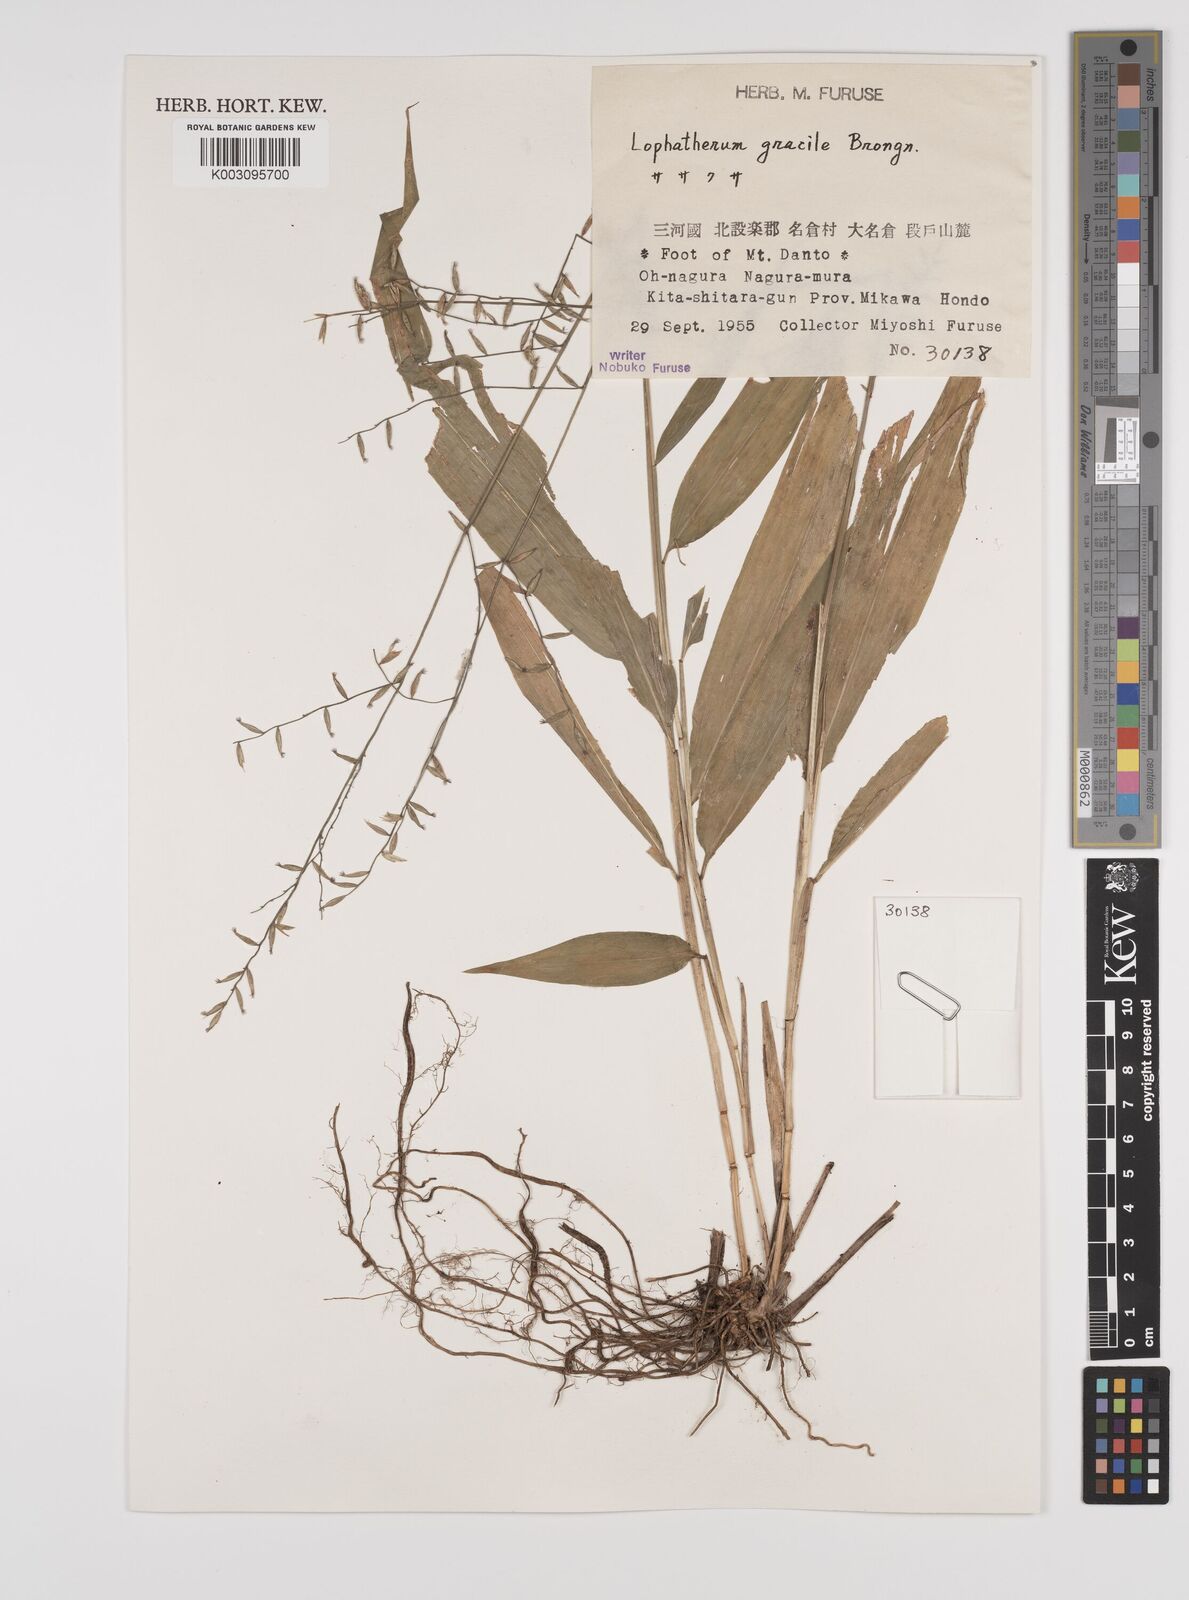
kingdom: Plantae
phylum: Tracheophyta
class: Liliopsida
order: Poales
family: Poaceae
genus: Lophatherum
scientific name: Lophatherum gracile
